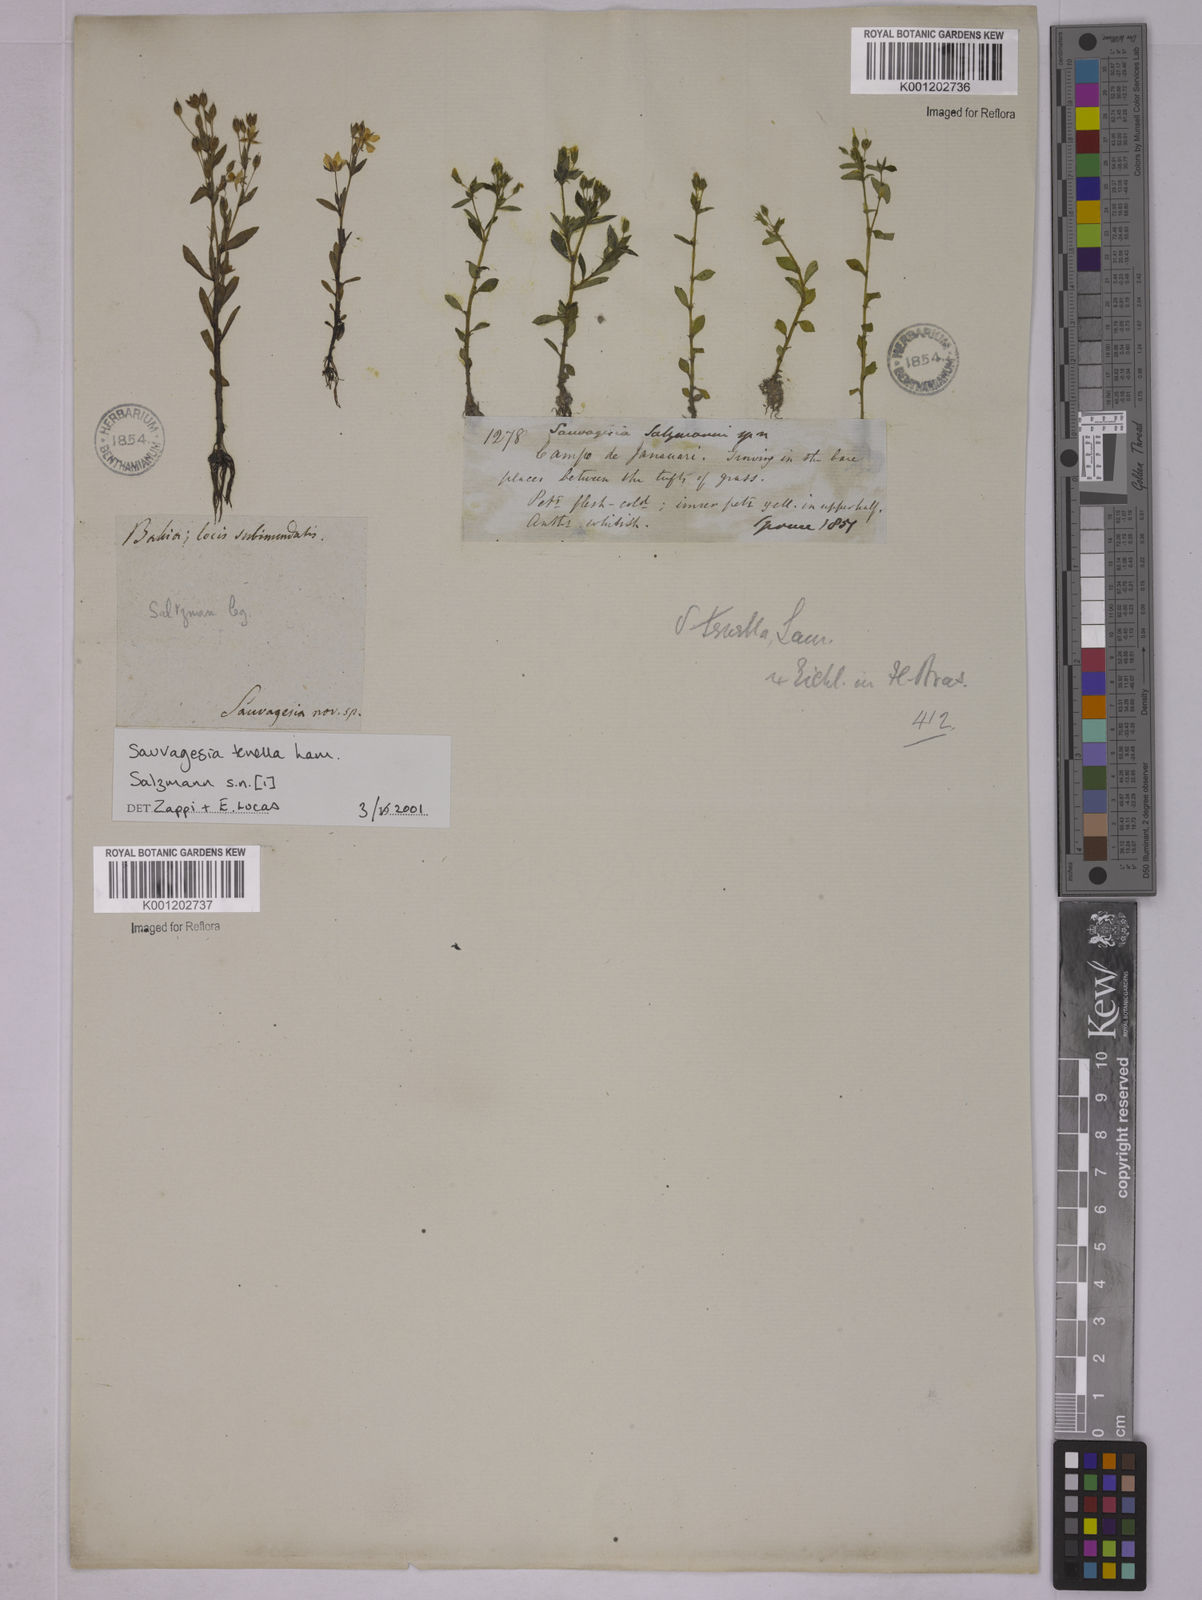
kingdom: Plantae
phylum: Tracheophyta
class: Magnoliopsida
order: Malpighiales
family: Ochnaceae
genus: Sauvagesia
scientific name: Sauvagesia tenella
